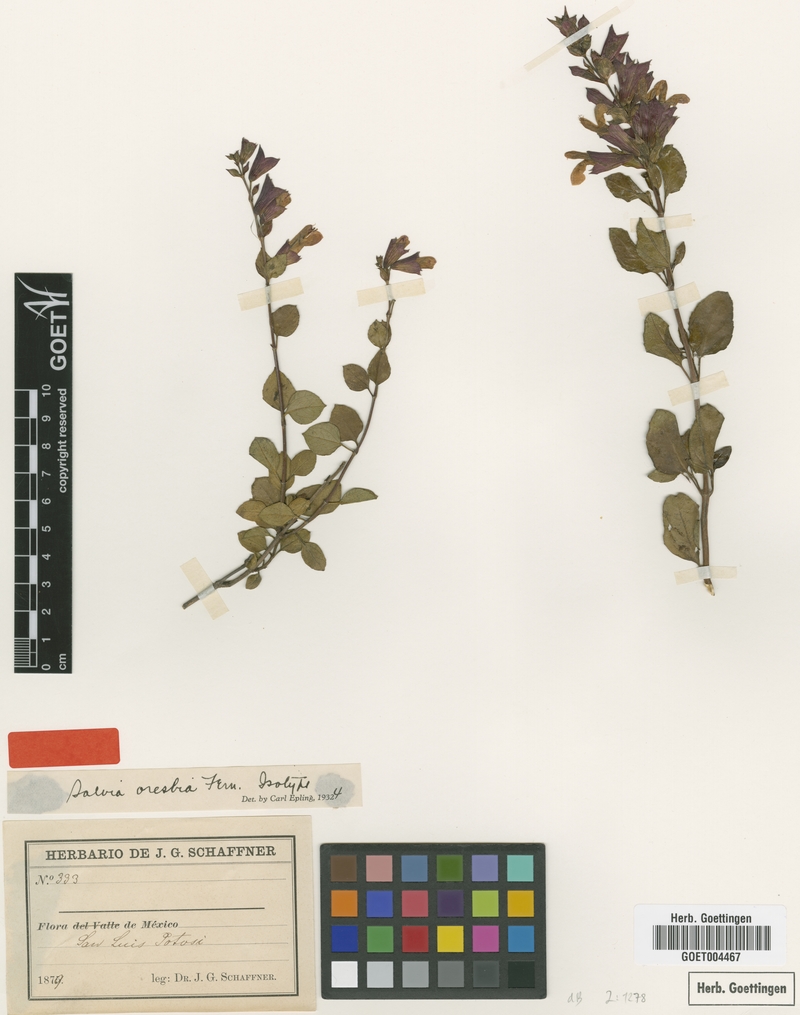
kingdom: Plantae
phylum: Tracheophyta
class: Magnoliopsida
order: Lamiales
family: Lamiaceae
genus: Salvia
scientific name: Salvia oresbia
